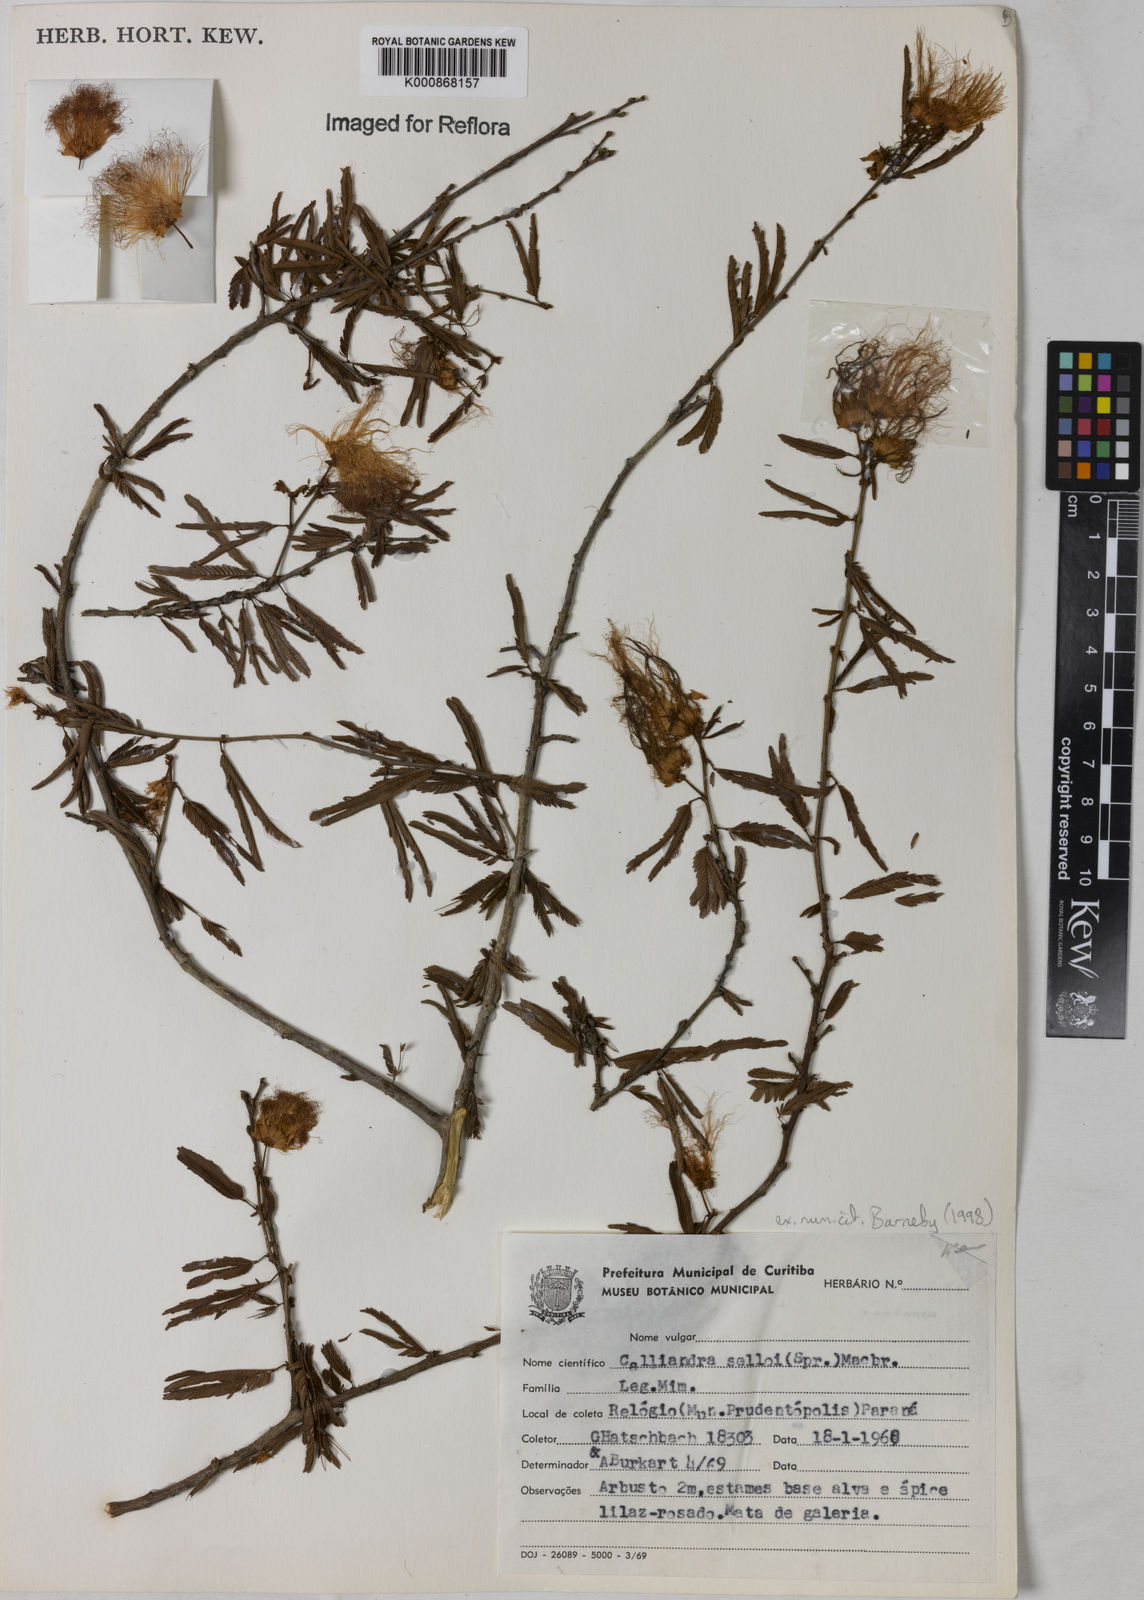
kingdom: Plantae
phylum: Tracheophyta
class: Magnoliopsida
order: Fabales
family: Fabaceae
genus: Calliandra
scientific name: Calliandra selloi
